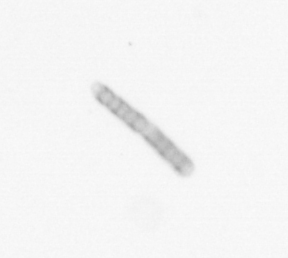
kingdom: Chromista
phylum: Ochrophyta
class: Bacillariophyceae
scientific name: Bacillariophyceae
